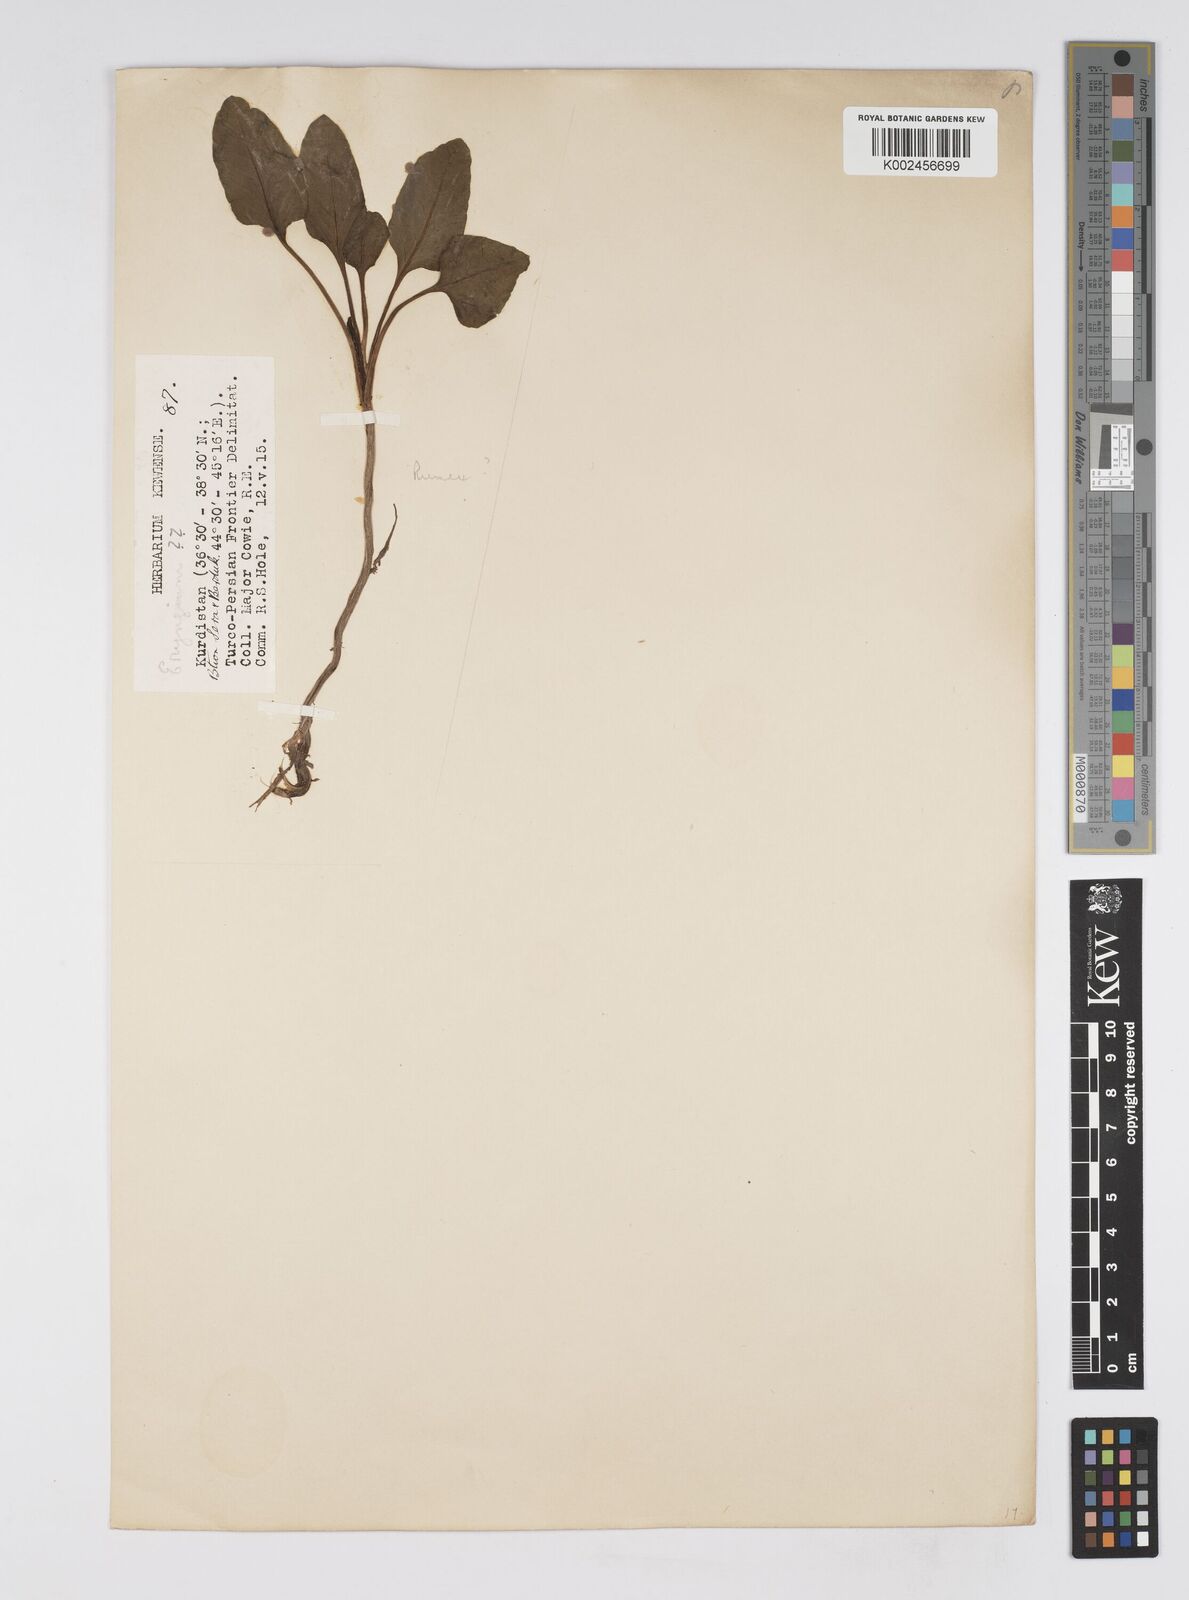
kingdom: Plantae
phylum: Tracheophyta
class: Magnoliopsida
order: Apiales
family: Apiaceae
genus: Eryngium
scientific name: Eryngium billardierei
